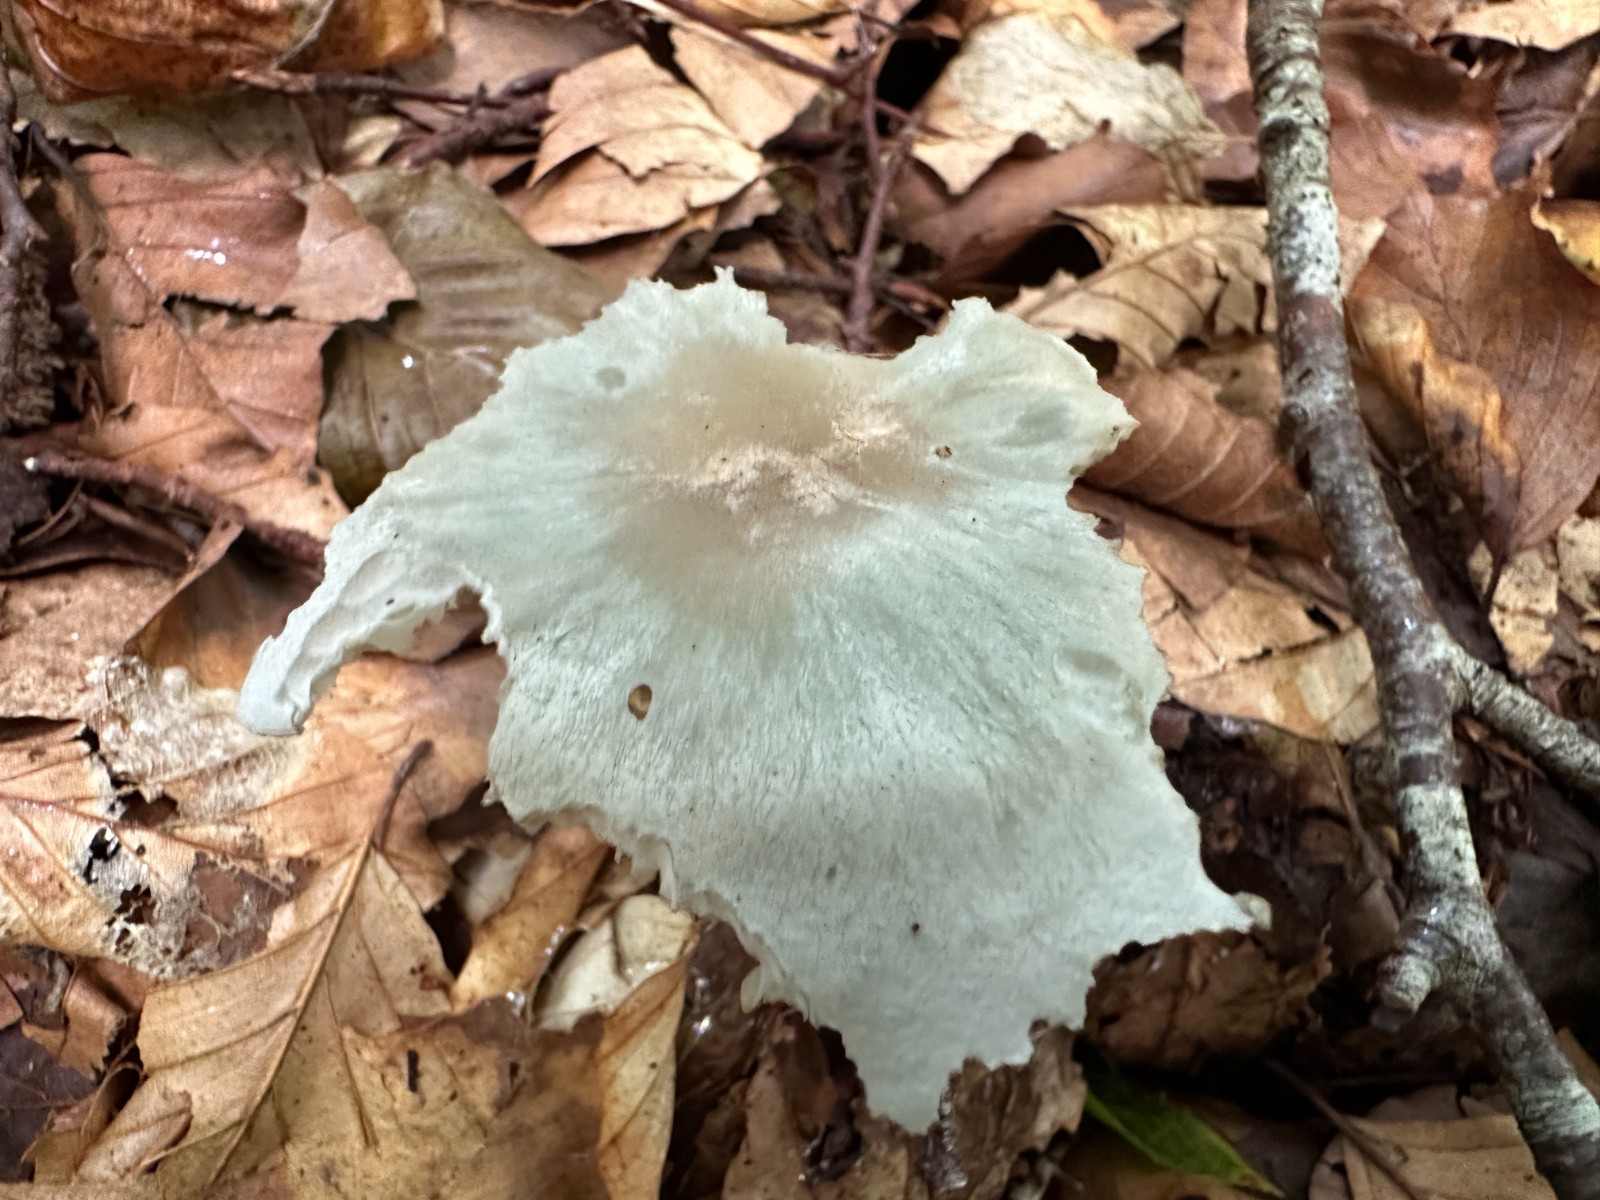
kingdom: Fungi
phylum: Basidiomycota
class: Agaricomycetes
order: Agaricales
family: Tricholomataceae
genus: Clitocybe
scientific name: Clitocybe odora
